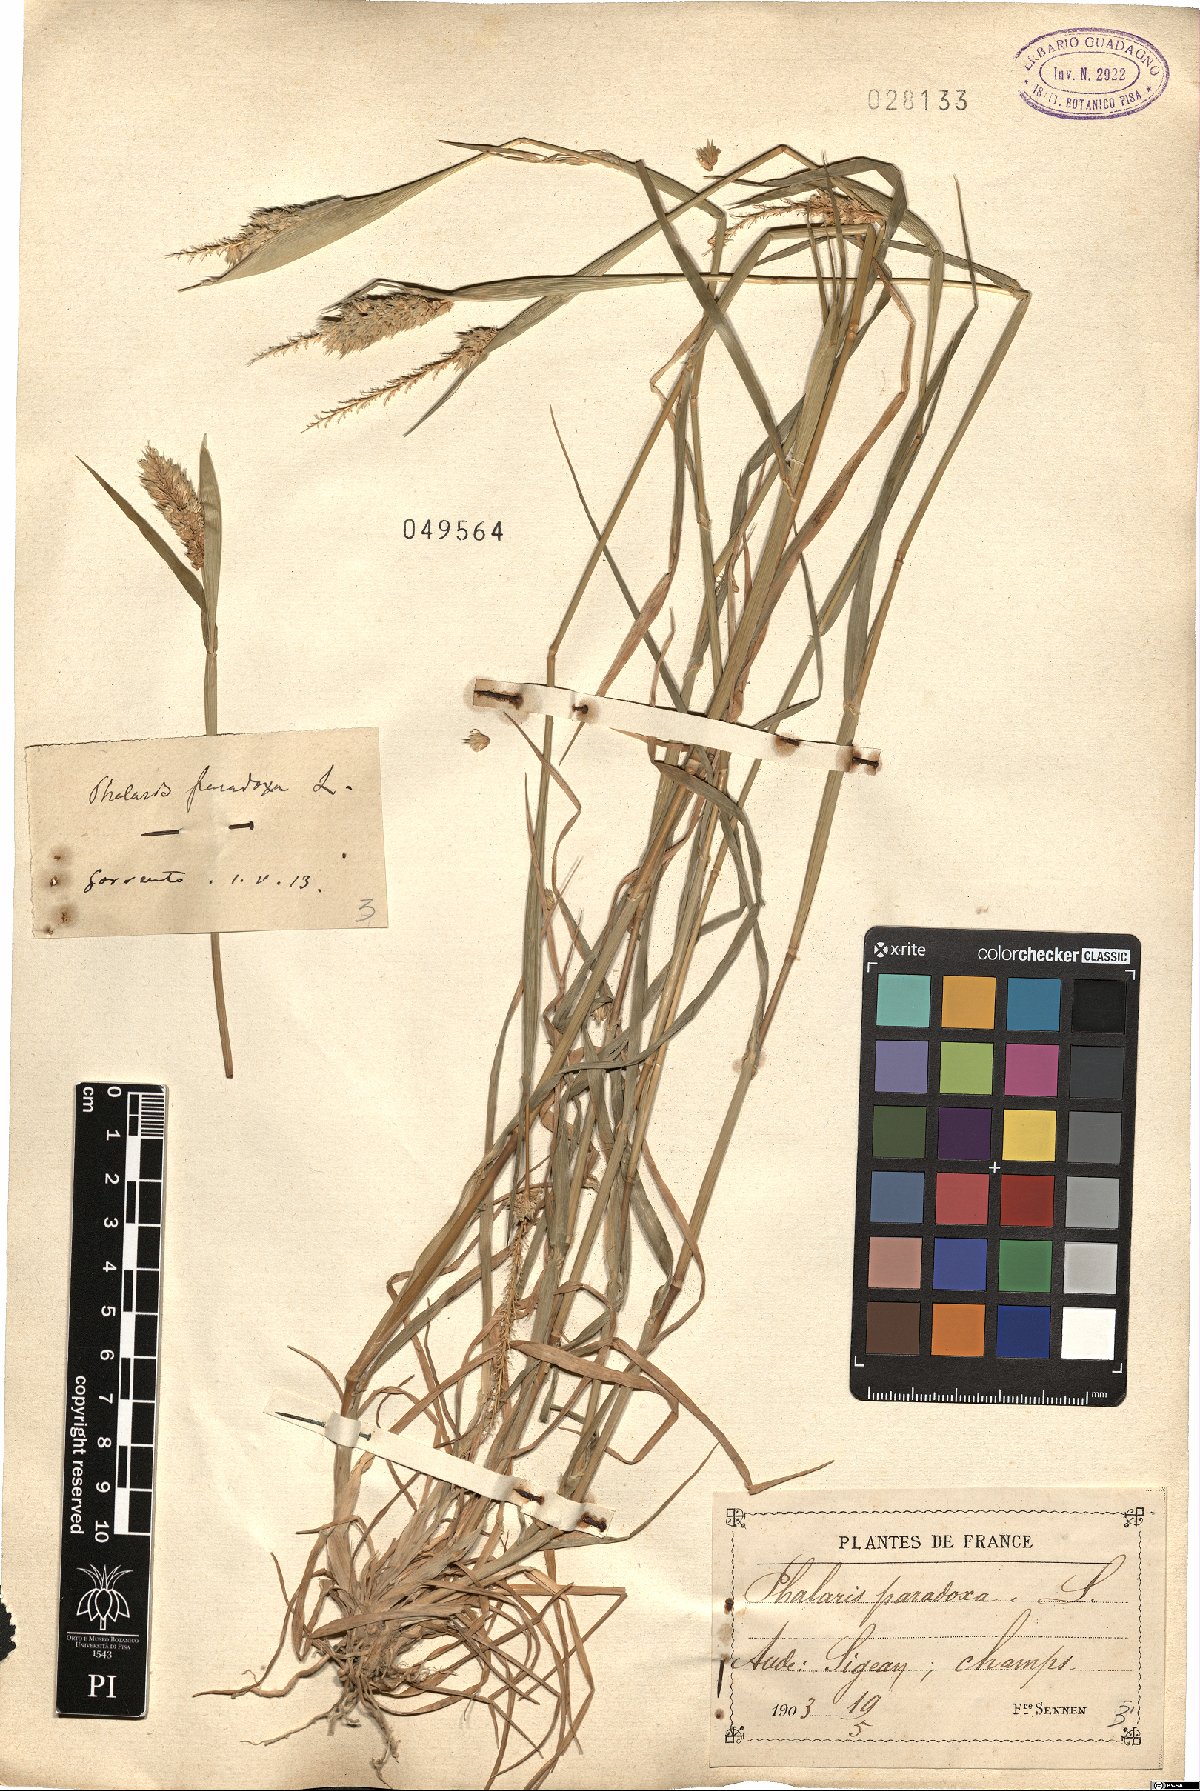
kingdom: Plantae
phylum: Tracheophyta
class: Liliopsida
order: Poales
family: Poaceae
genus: Phalaris
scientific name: Phalaris paradoxa
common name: Awned canary-grass
